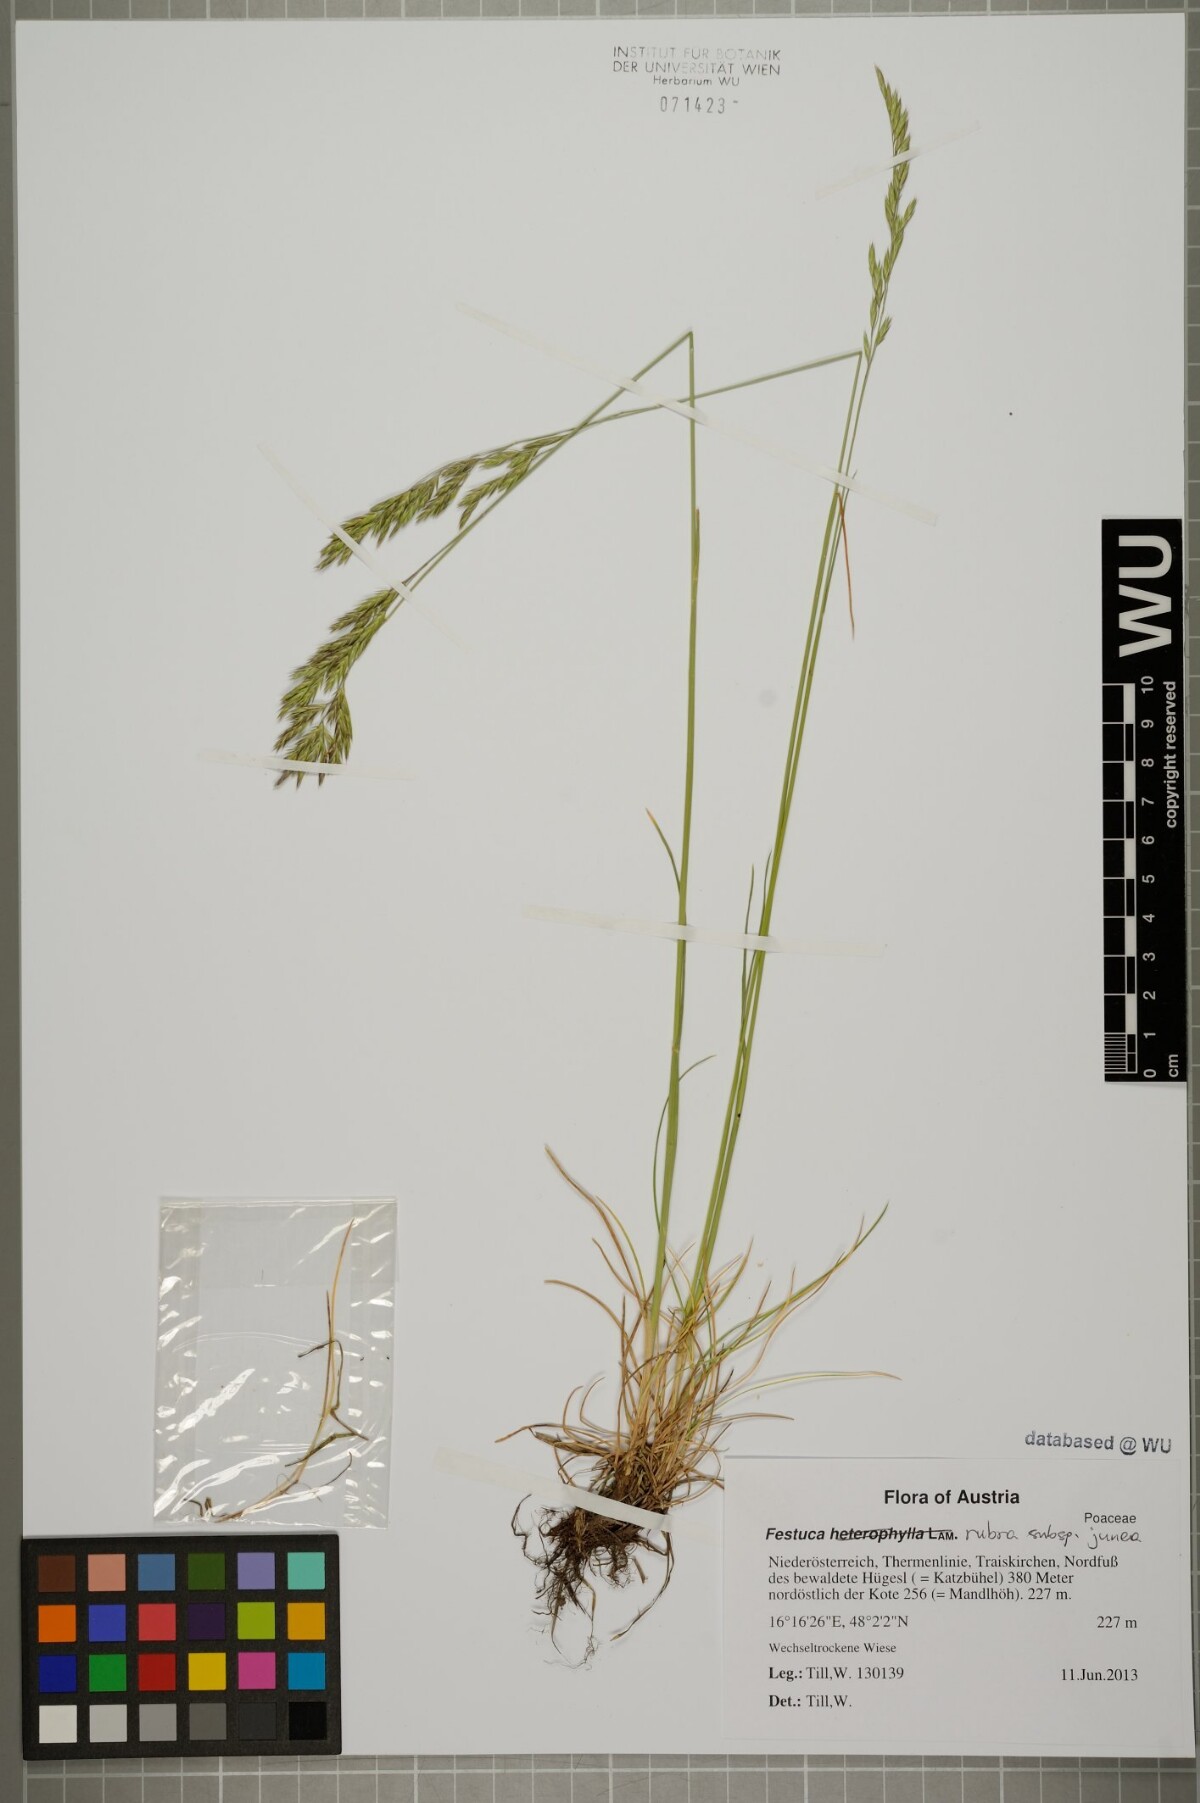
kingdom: Plantae
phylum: Tracheophyta
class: Liliopsida
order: Poales
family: Poaceae
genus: Festuca
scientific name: Festuca rubra
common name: Red fescue
